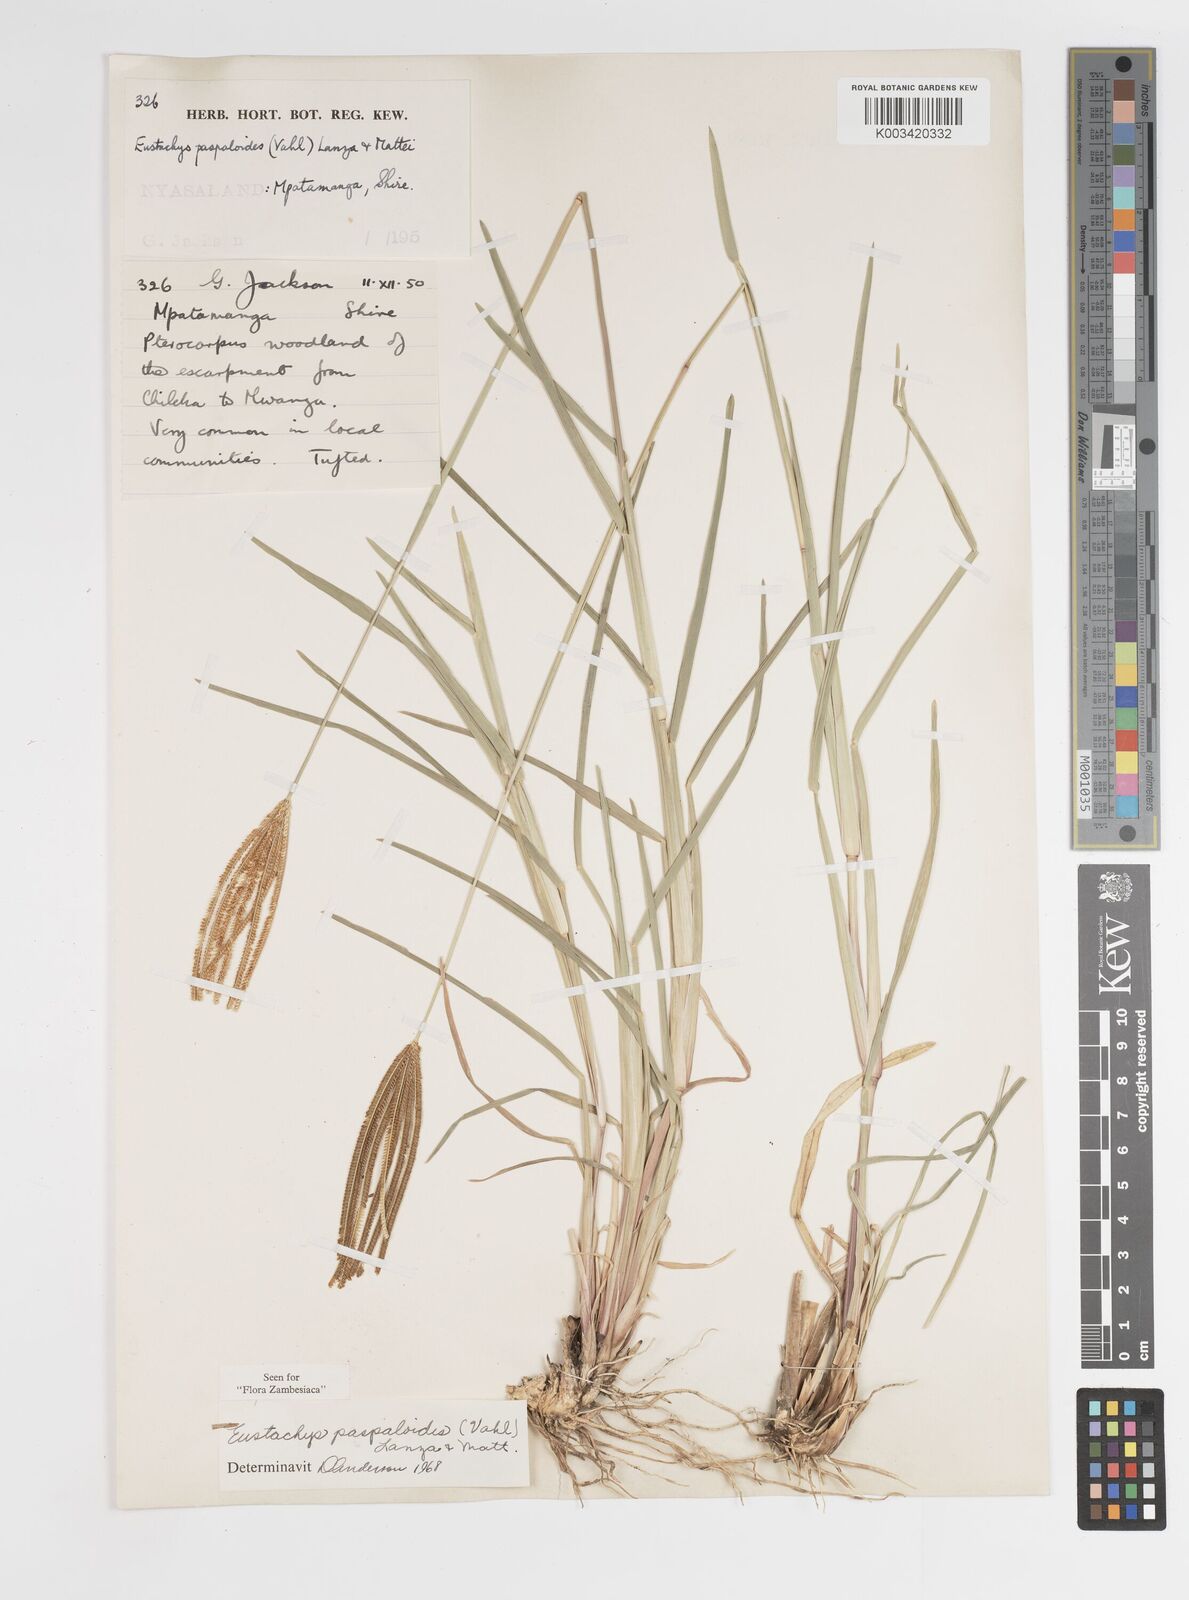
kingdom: Plantae
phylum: Tracheophyta
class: Liliopsida
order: Poales
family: Poaceae
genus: Eustachys
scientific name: Eustachys paspaloides
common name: Caribbean fingergrass
